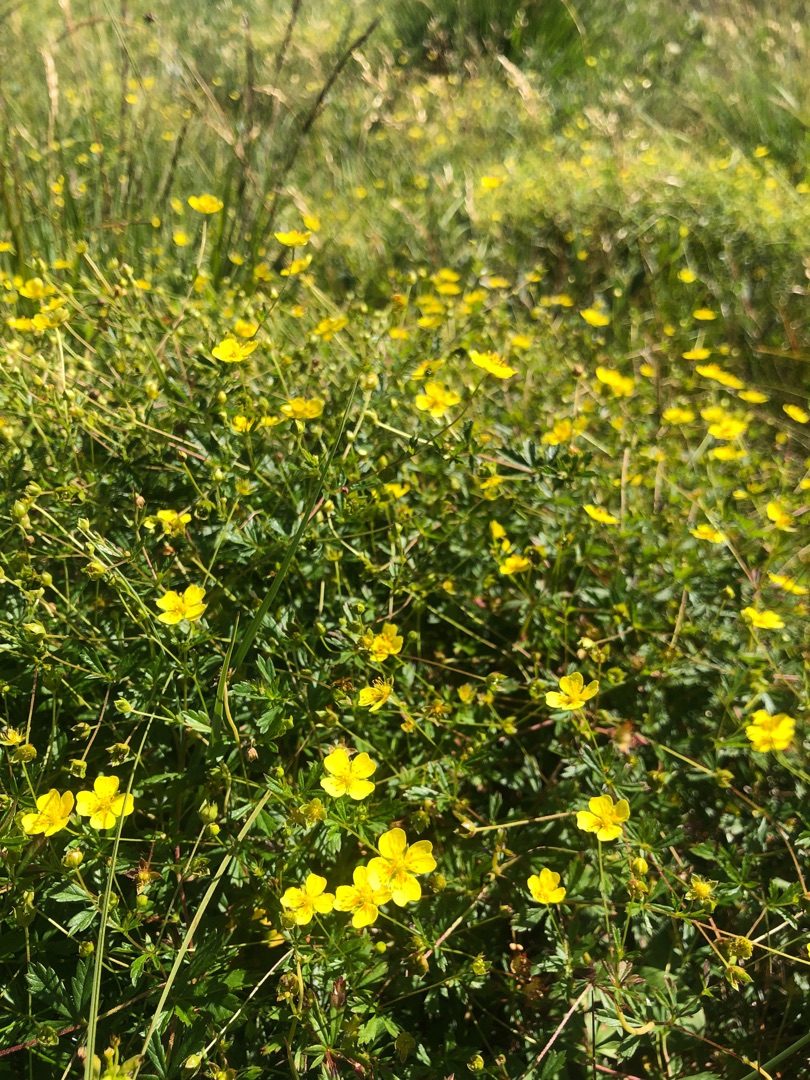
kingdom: Plantae
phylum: Tracheophyta
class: Magnoliopsida
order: Rosales
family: Rosaceae
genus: Potentilla
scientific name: Potentilla erecta
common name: Tormentil
